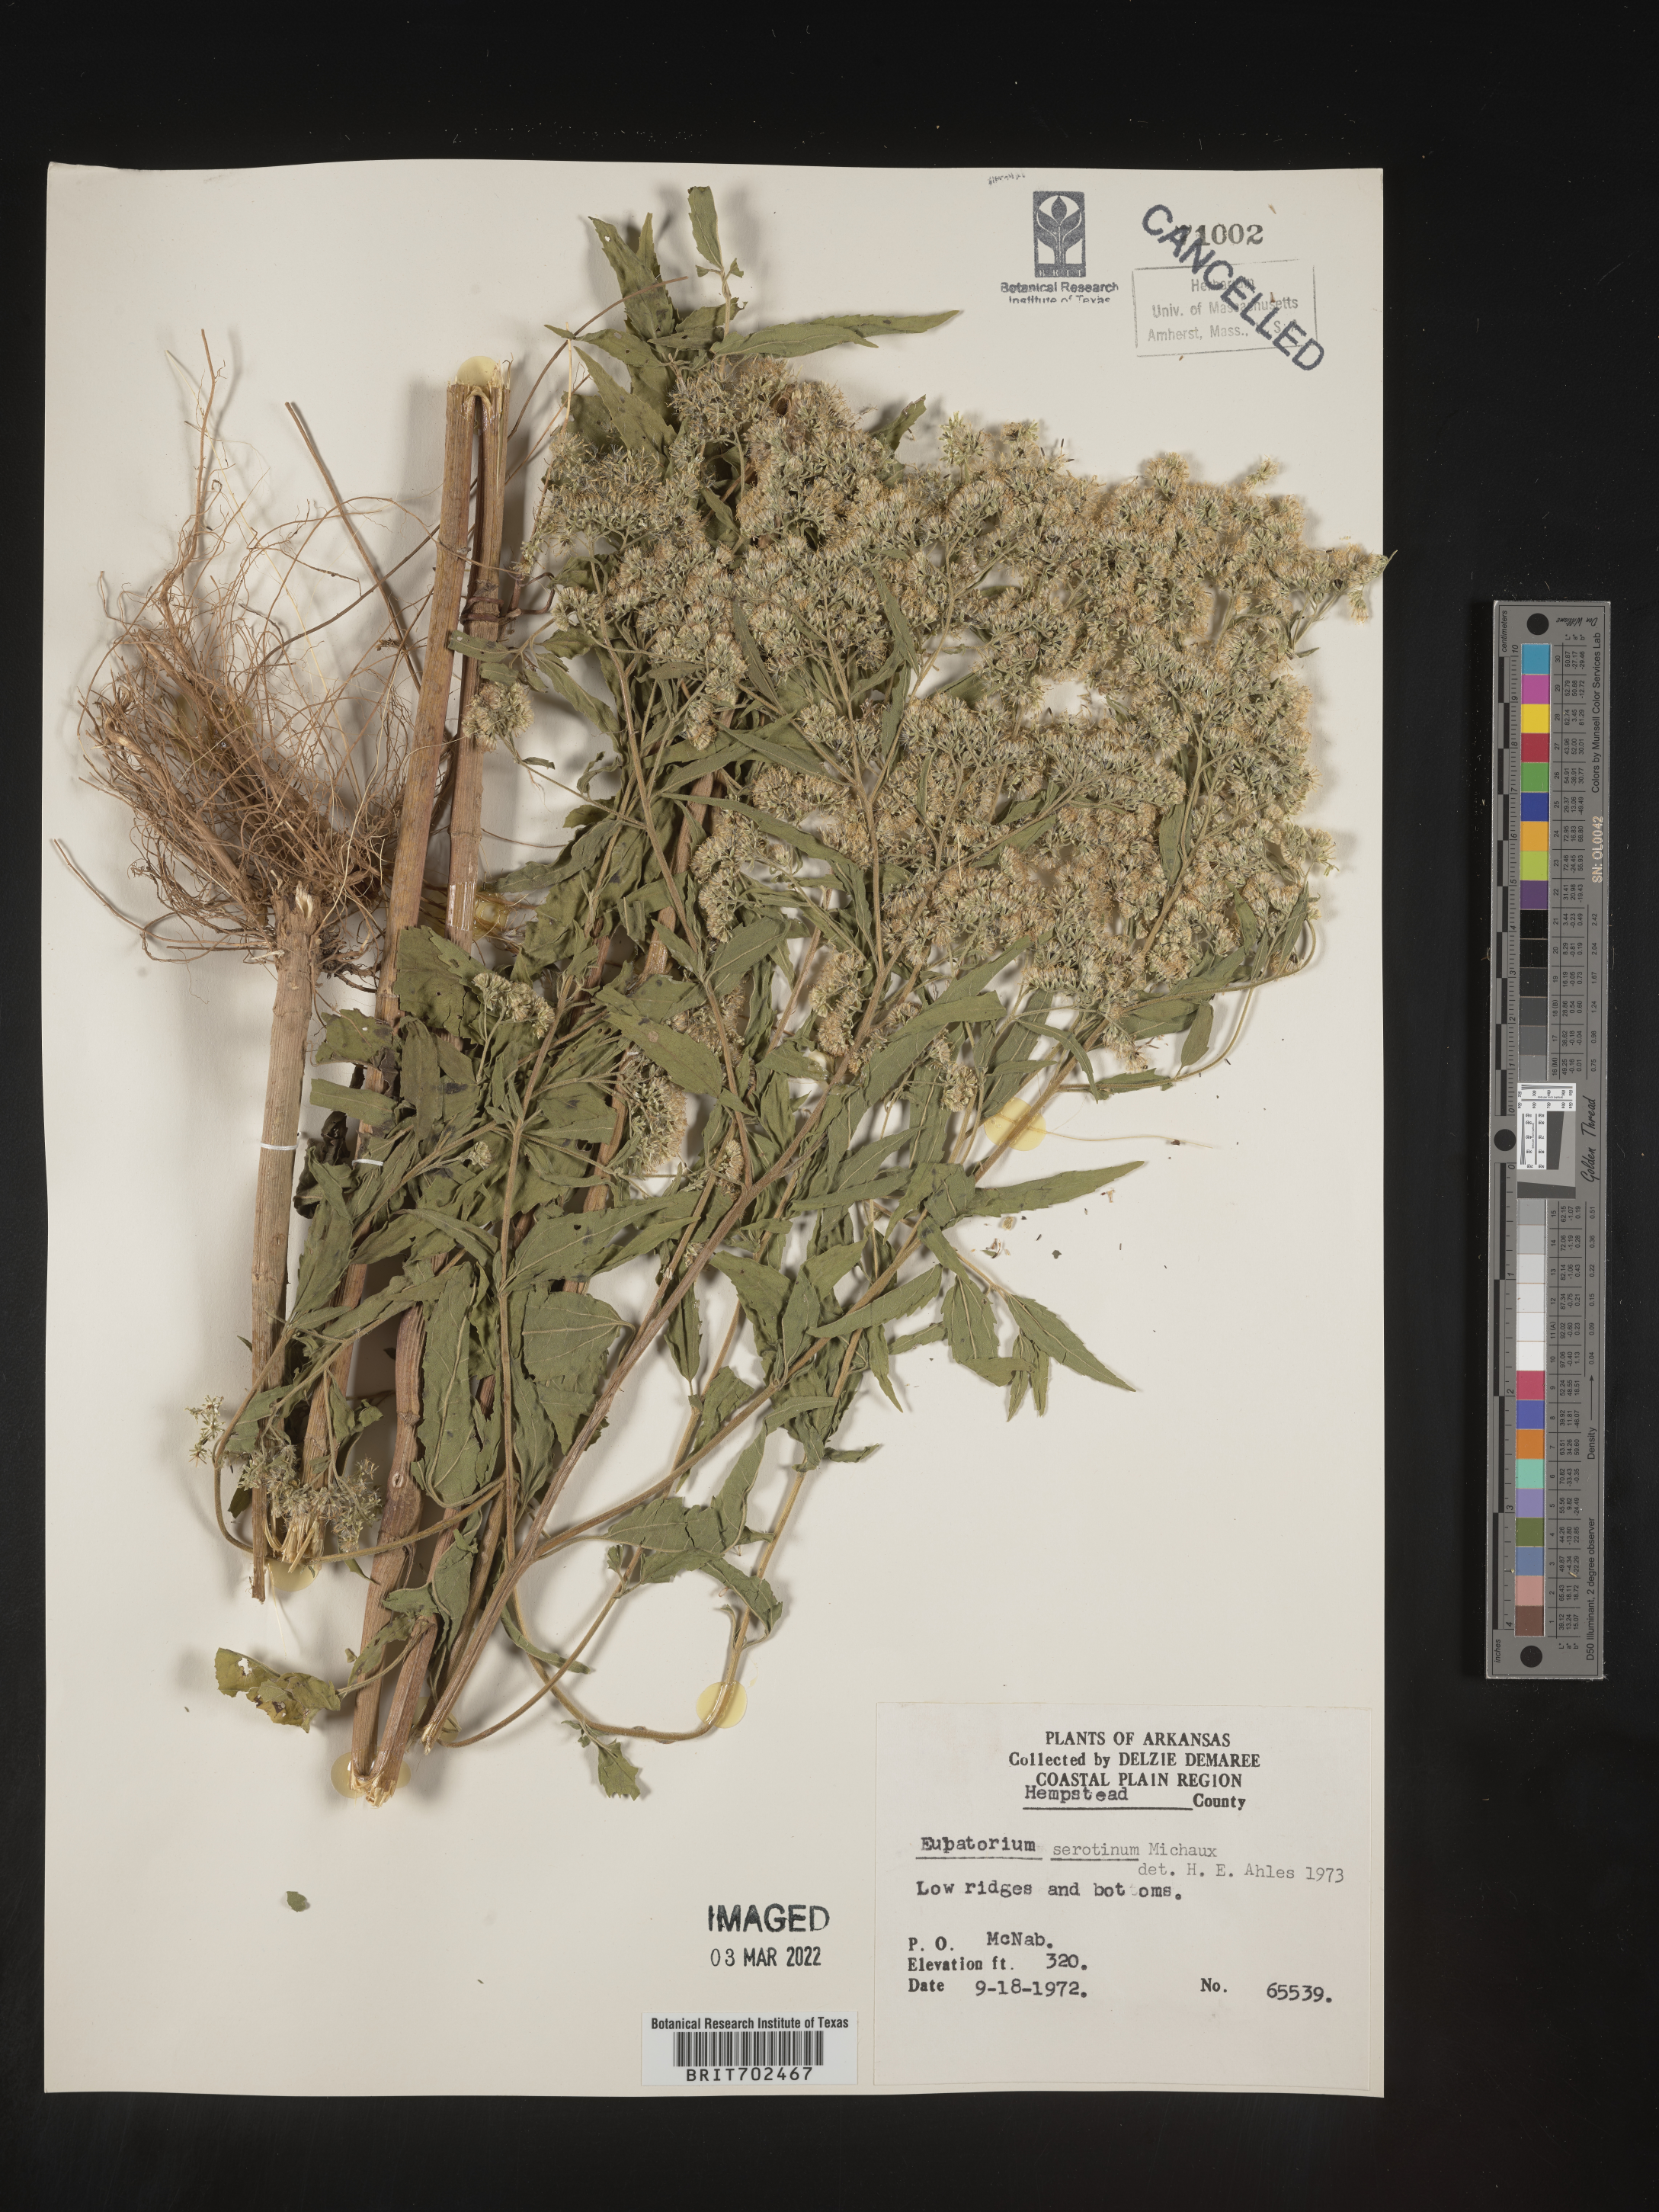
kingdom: Plantae
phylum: Tracheophyta
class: Magnoliopsida
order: Asterales
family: Asteraceae
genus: Eupatorium
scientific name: Eupatorium serotinum
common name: Late boneset
